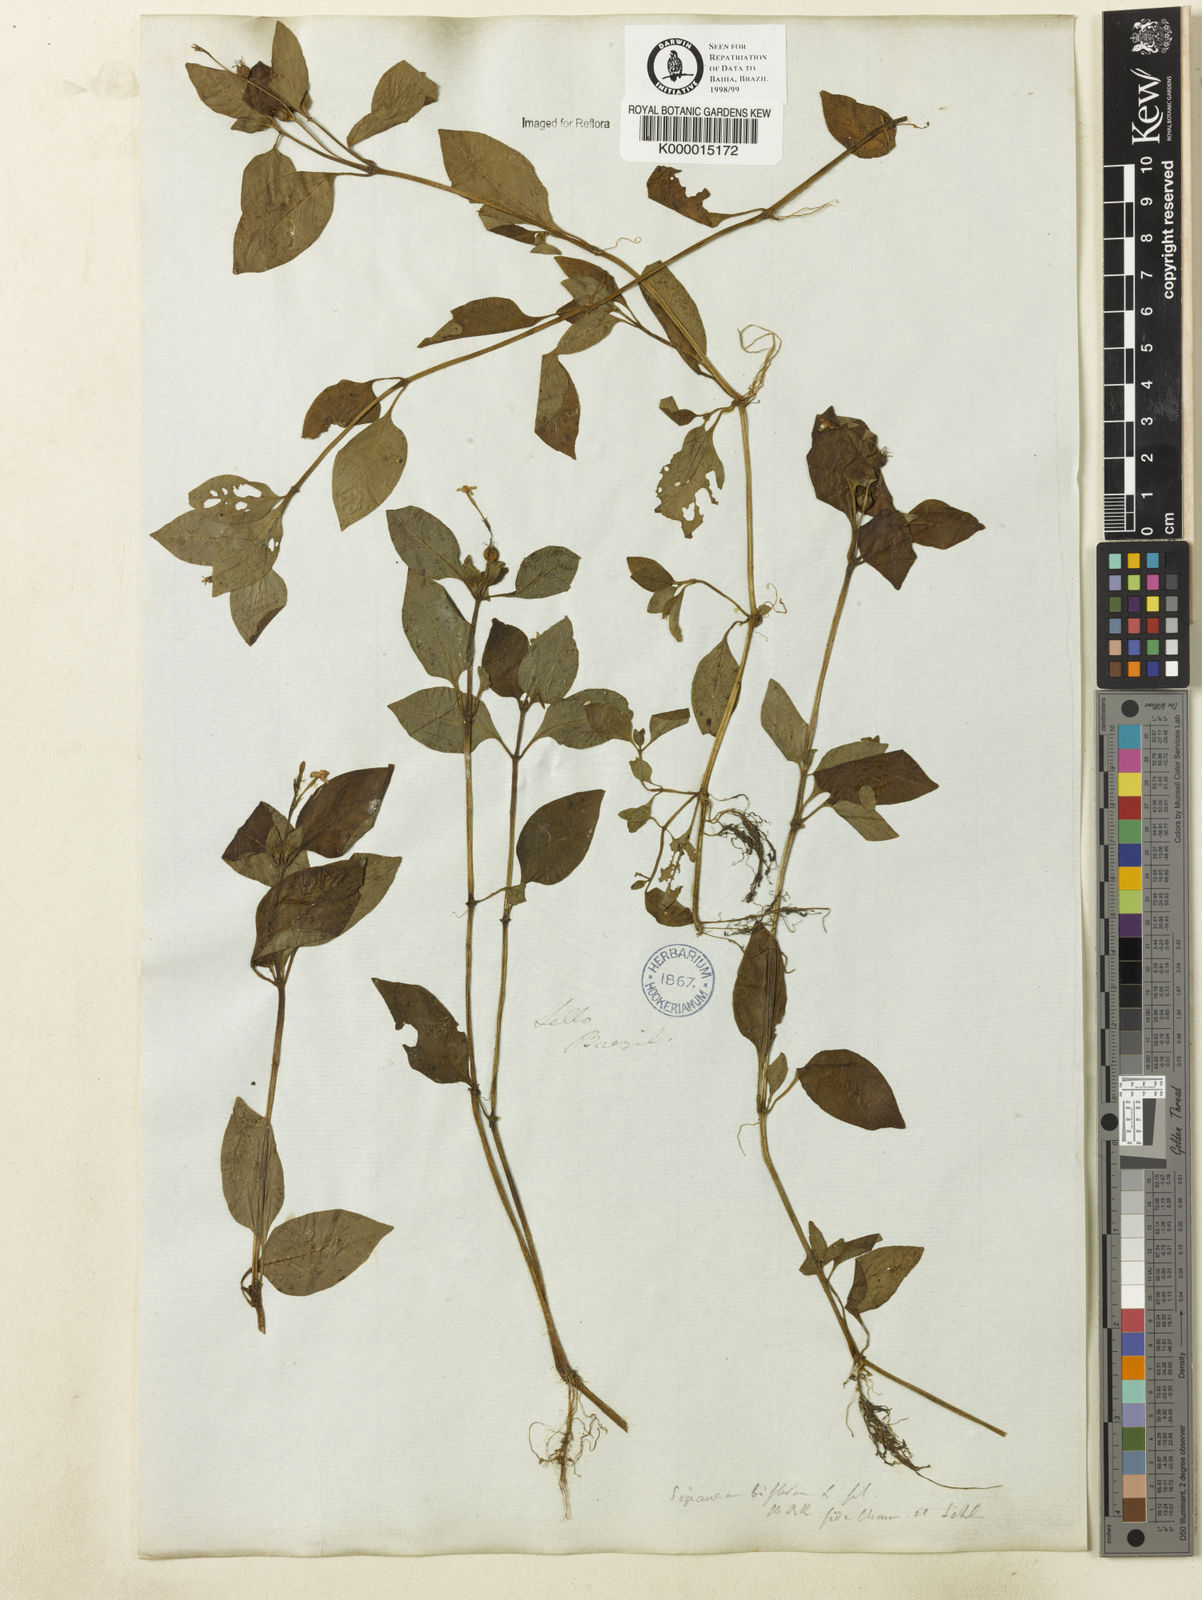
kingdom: Plantae
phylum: Tracheophyta
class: Magnoliopsida
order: Gentianales
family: Rubiaceae
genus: Sipanea
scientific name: Sipanea biflora
